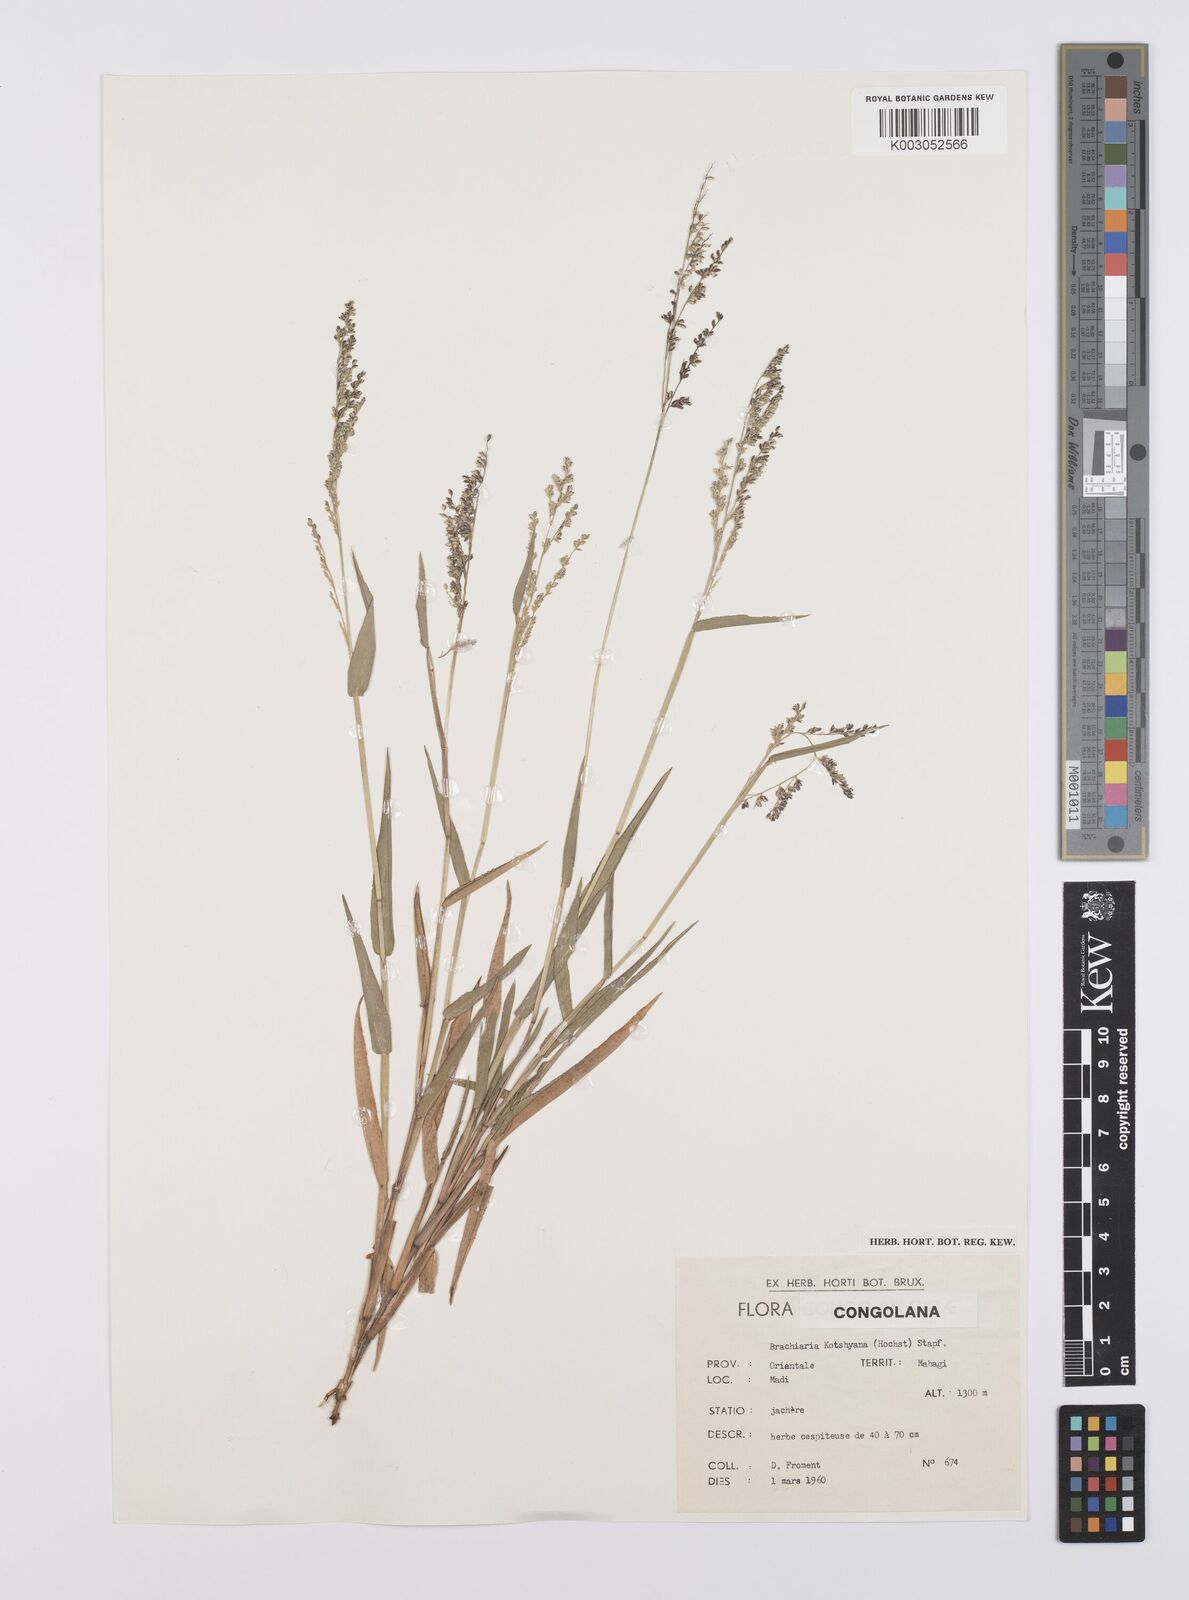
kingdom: Plantae
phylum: Tracheophyta
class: Liliopsida
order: Poales
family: Poaceae
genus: Urochloa
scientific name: Urochloa comata
